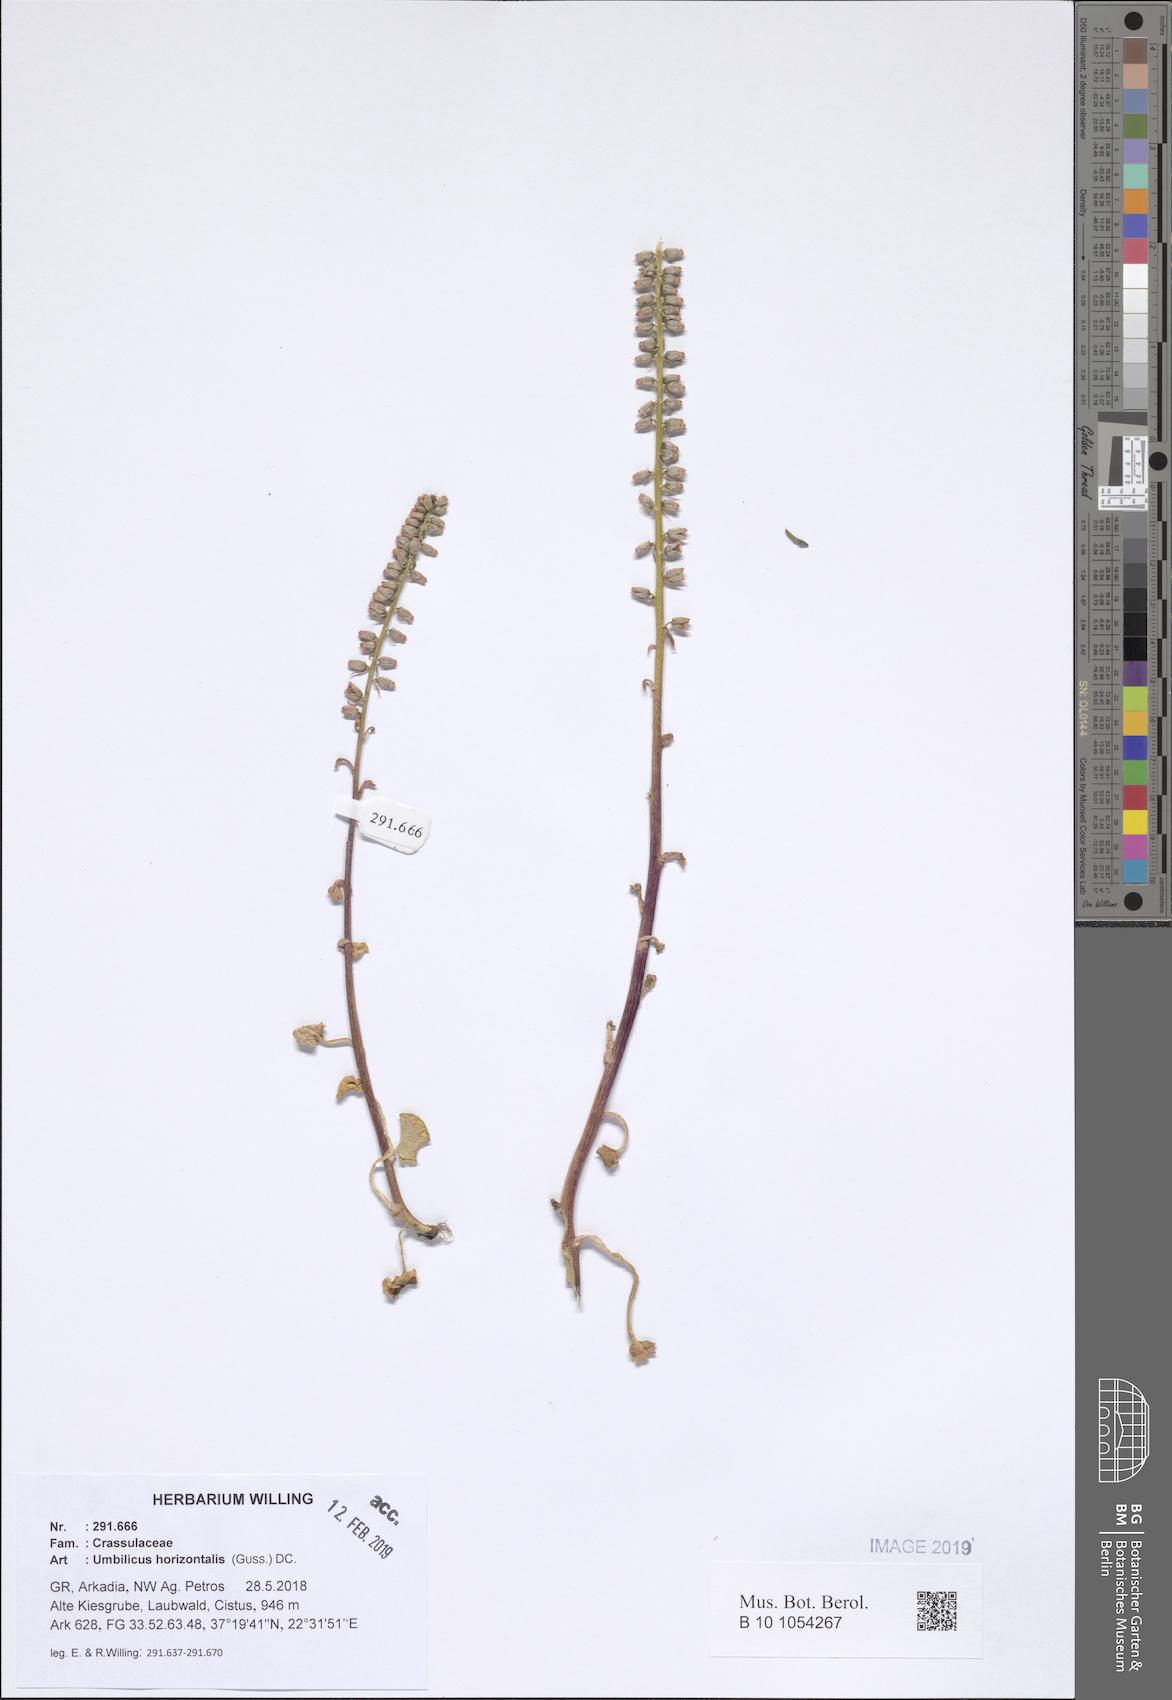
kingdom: Plantae
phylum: Tracheophyta
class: Magnoliopsida
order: Saxifragales
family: Crassulaceae
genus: Umbilicus
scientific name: Umbilicus horizontalis
